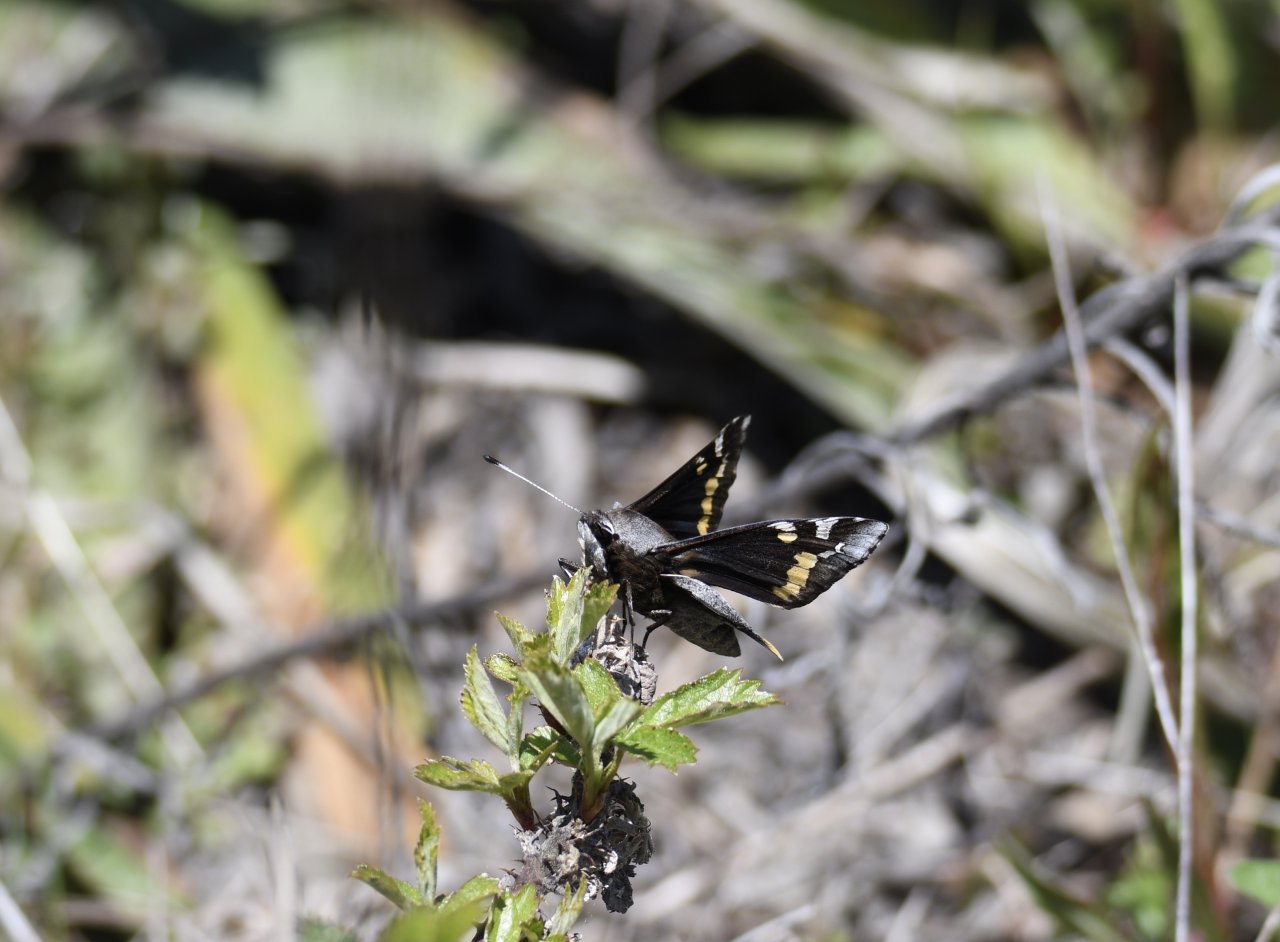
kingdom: Animalia
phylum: Arthropoda
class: Insecta
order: Lepidoptera
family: Hesperiidae
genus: Megathymus
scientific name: Megathymus yuccae
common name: Yucca Giant-Skipper
